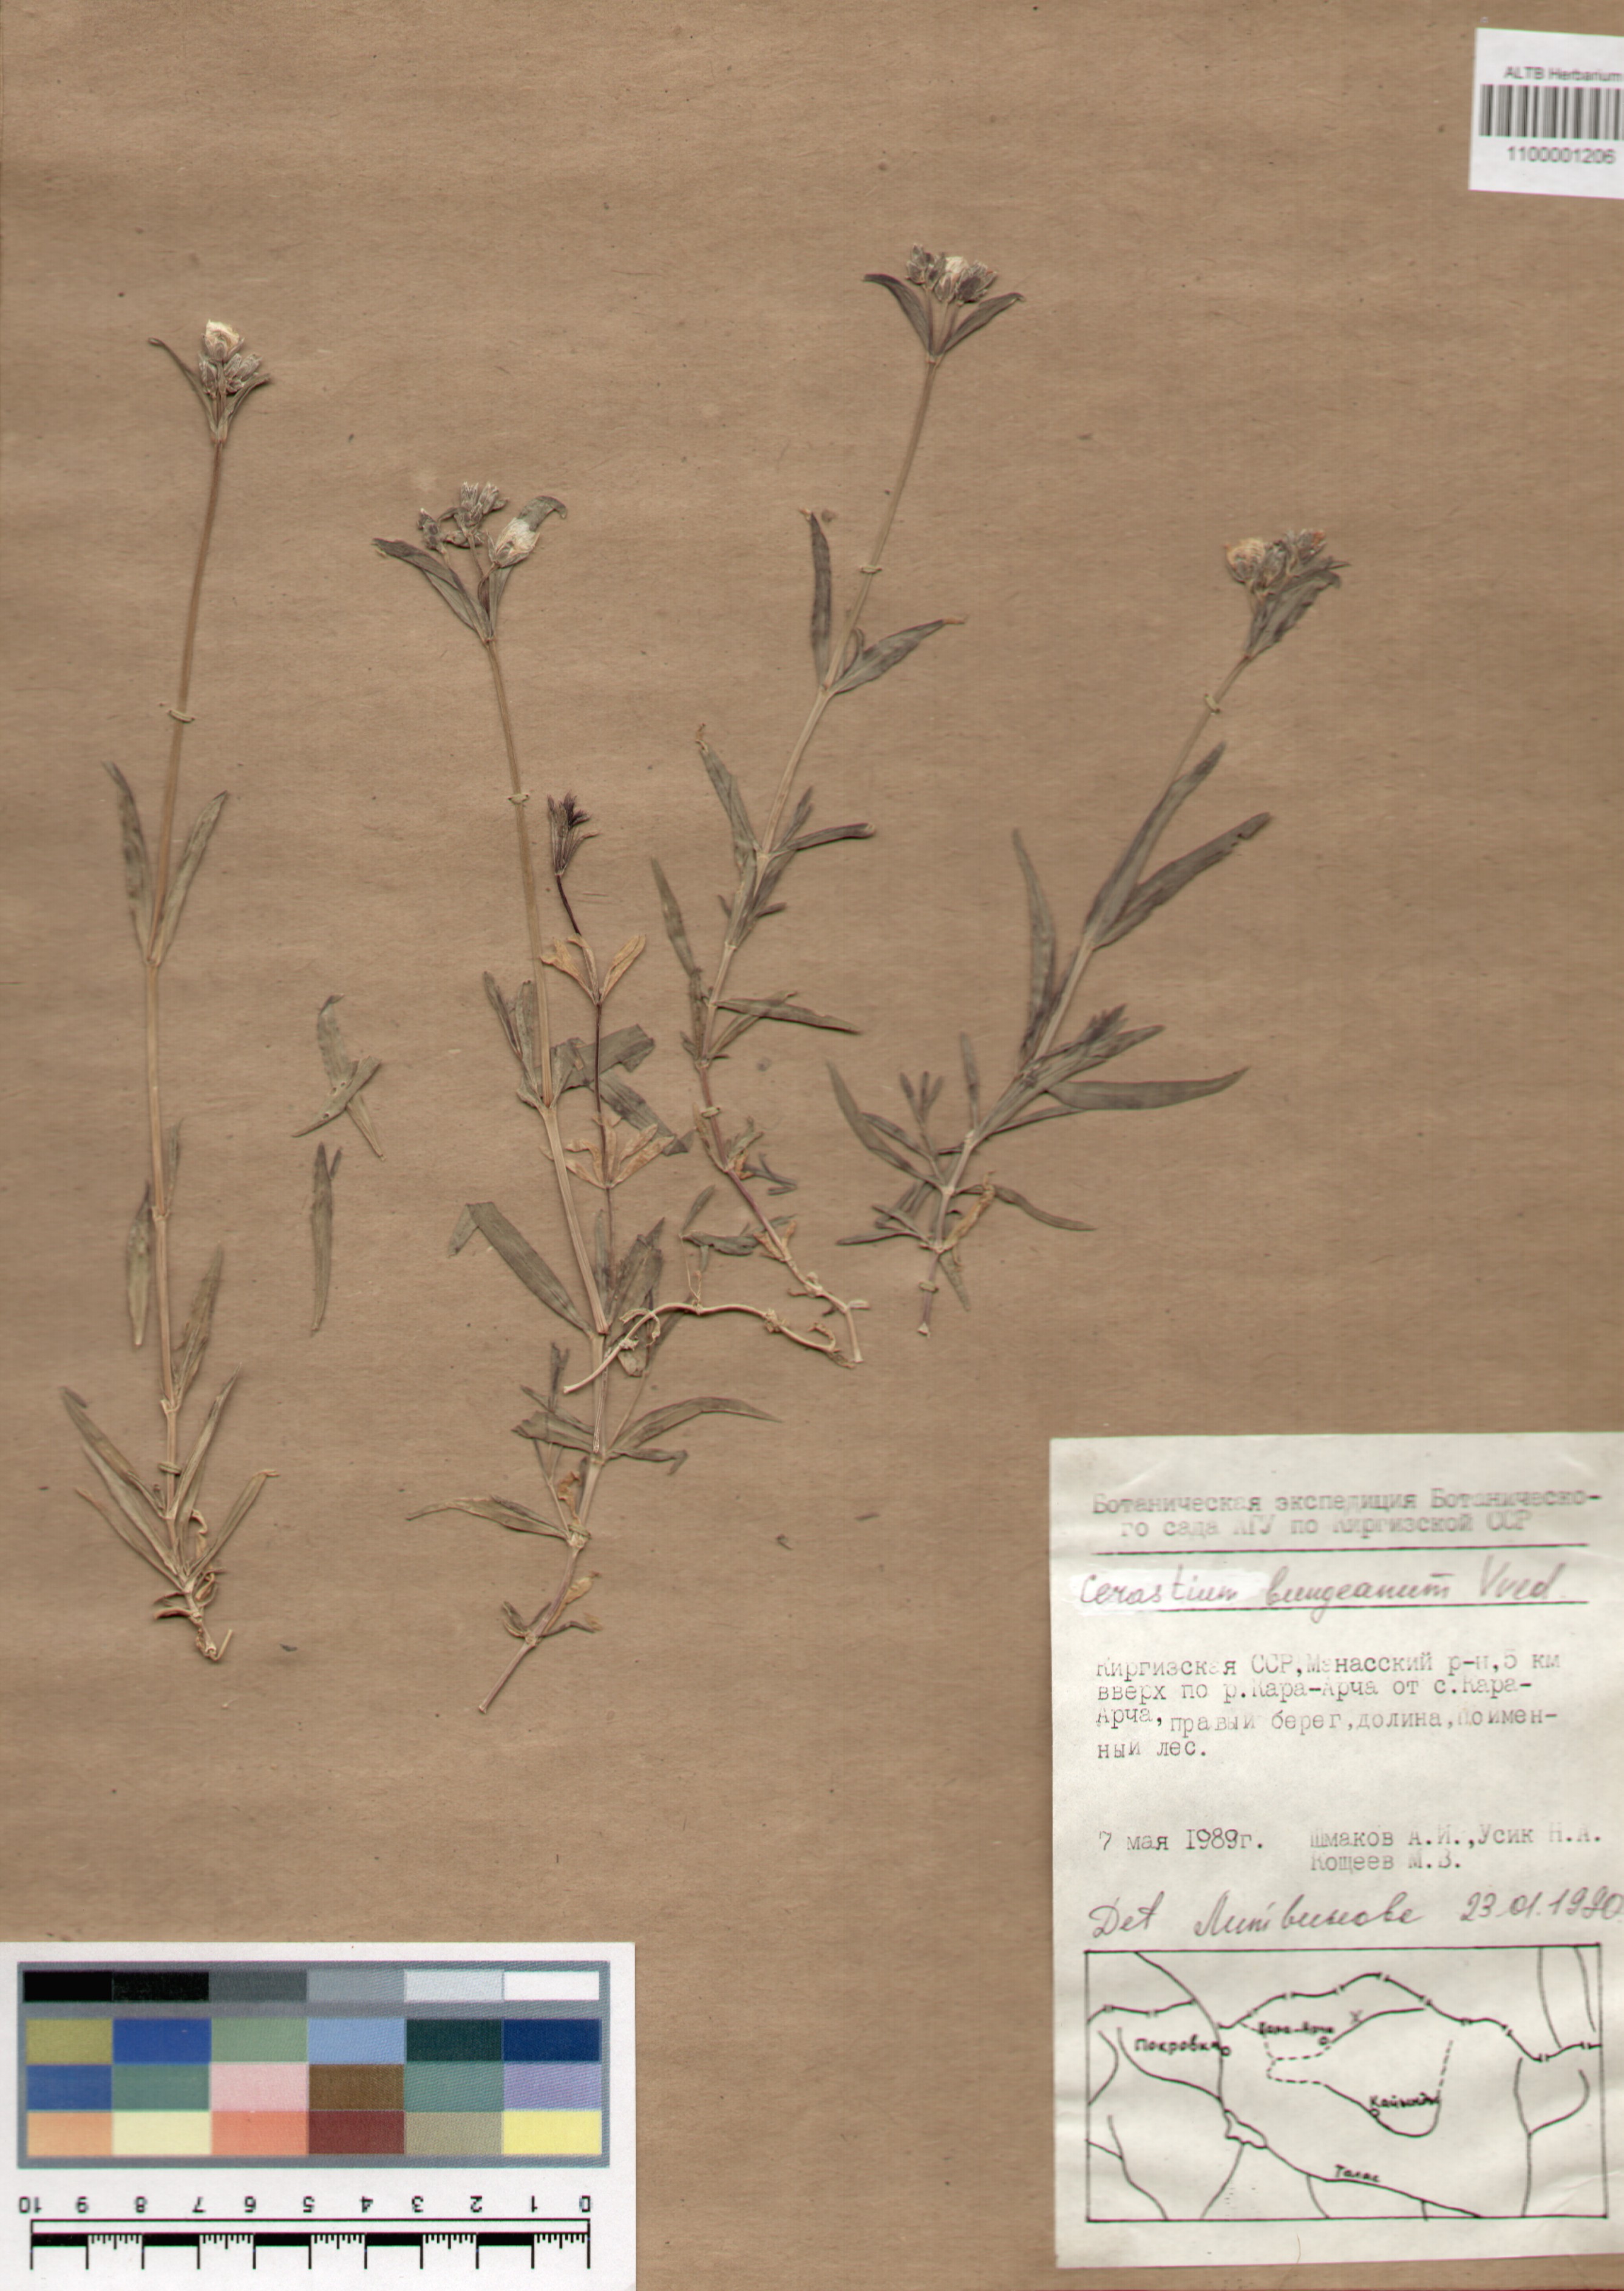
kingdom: Plantae
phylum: Tracheophyta
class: Magnoliopsida
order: Caryophyllales
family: Caryophyllaceae
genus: Dichodon
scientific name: Dichodon maximum
